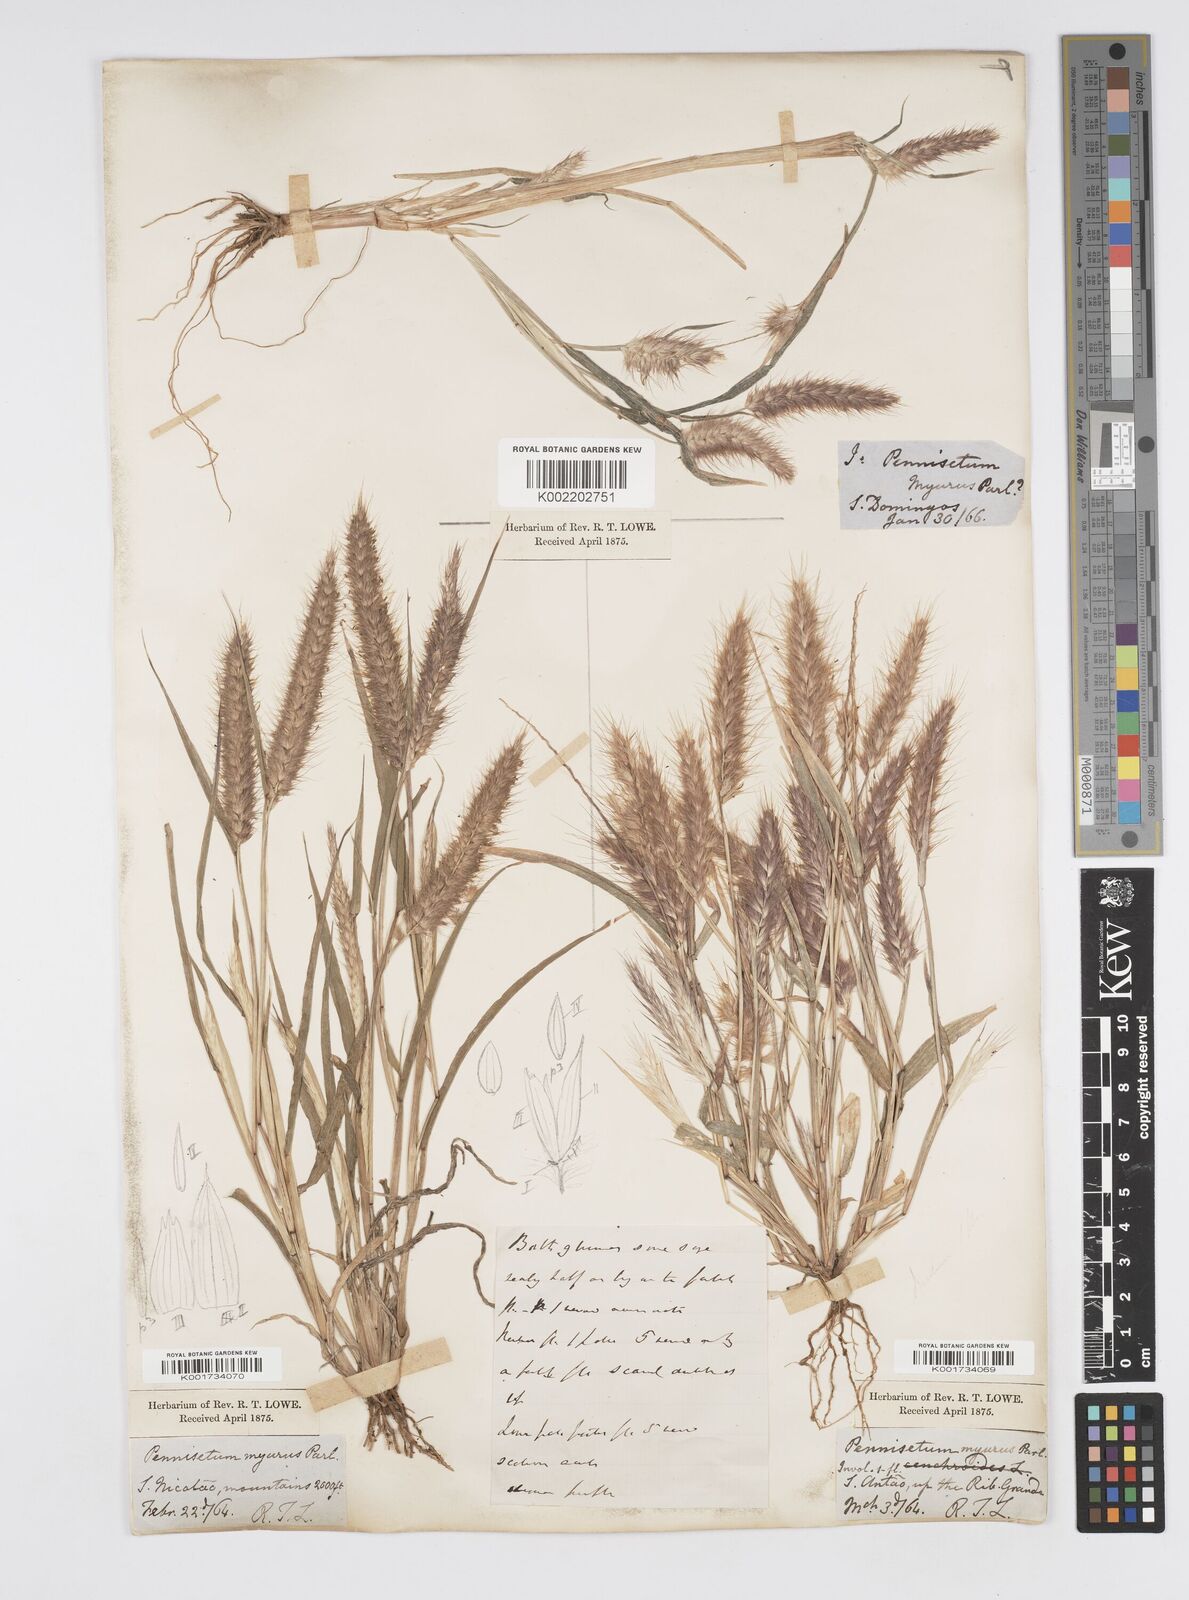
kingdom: Plantae
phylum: Tracheophyta
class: Liliopsida
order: Poales
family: Poaceae
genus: Cenchrus
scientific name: Cenchrus pedicellatus
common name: Hairy fountain grass
